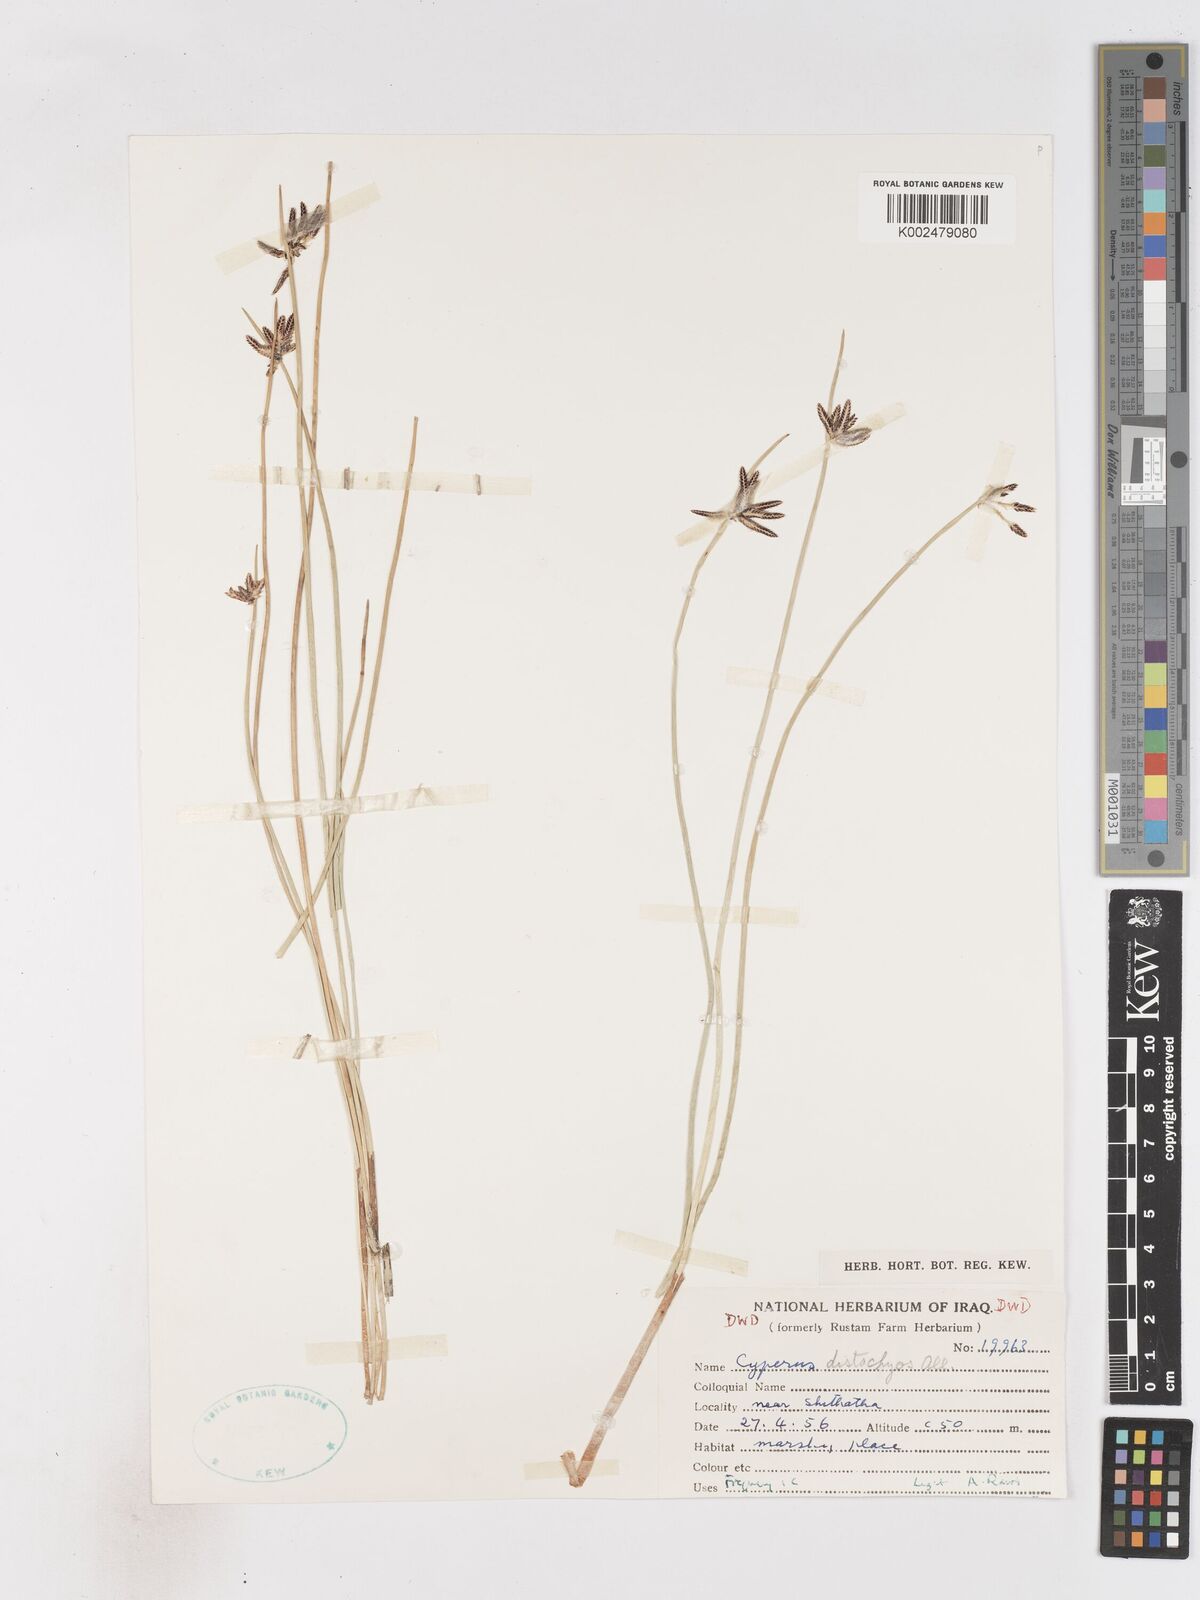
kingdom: Plantae
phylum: Tracheophyta
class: Liliopsida
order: Poales
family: Cyperaceae
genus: Cyperus
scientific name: Cyperus laevigatus
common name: Smooth flat sedge
